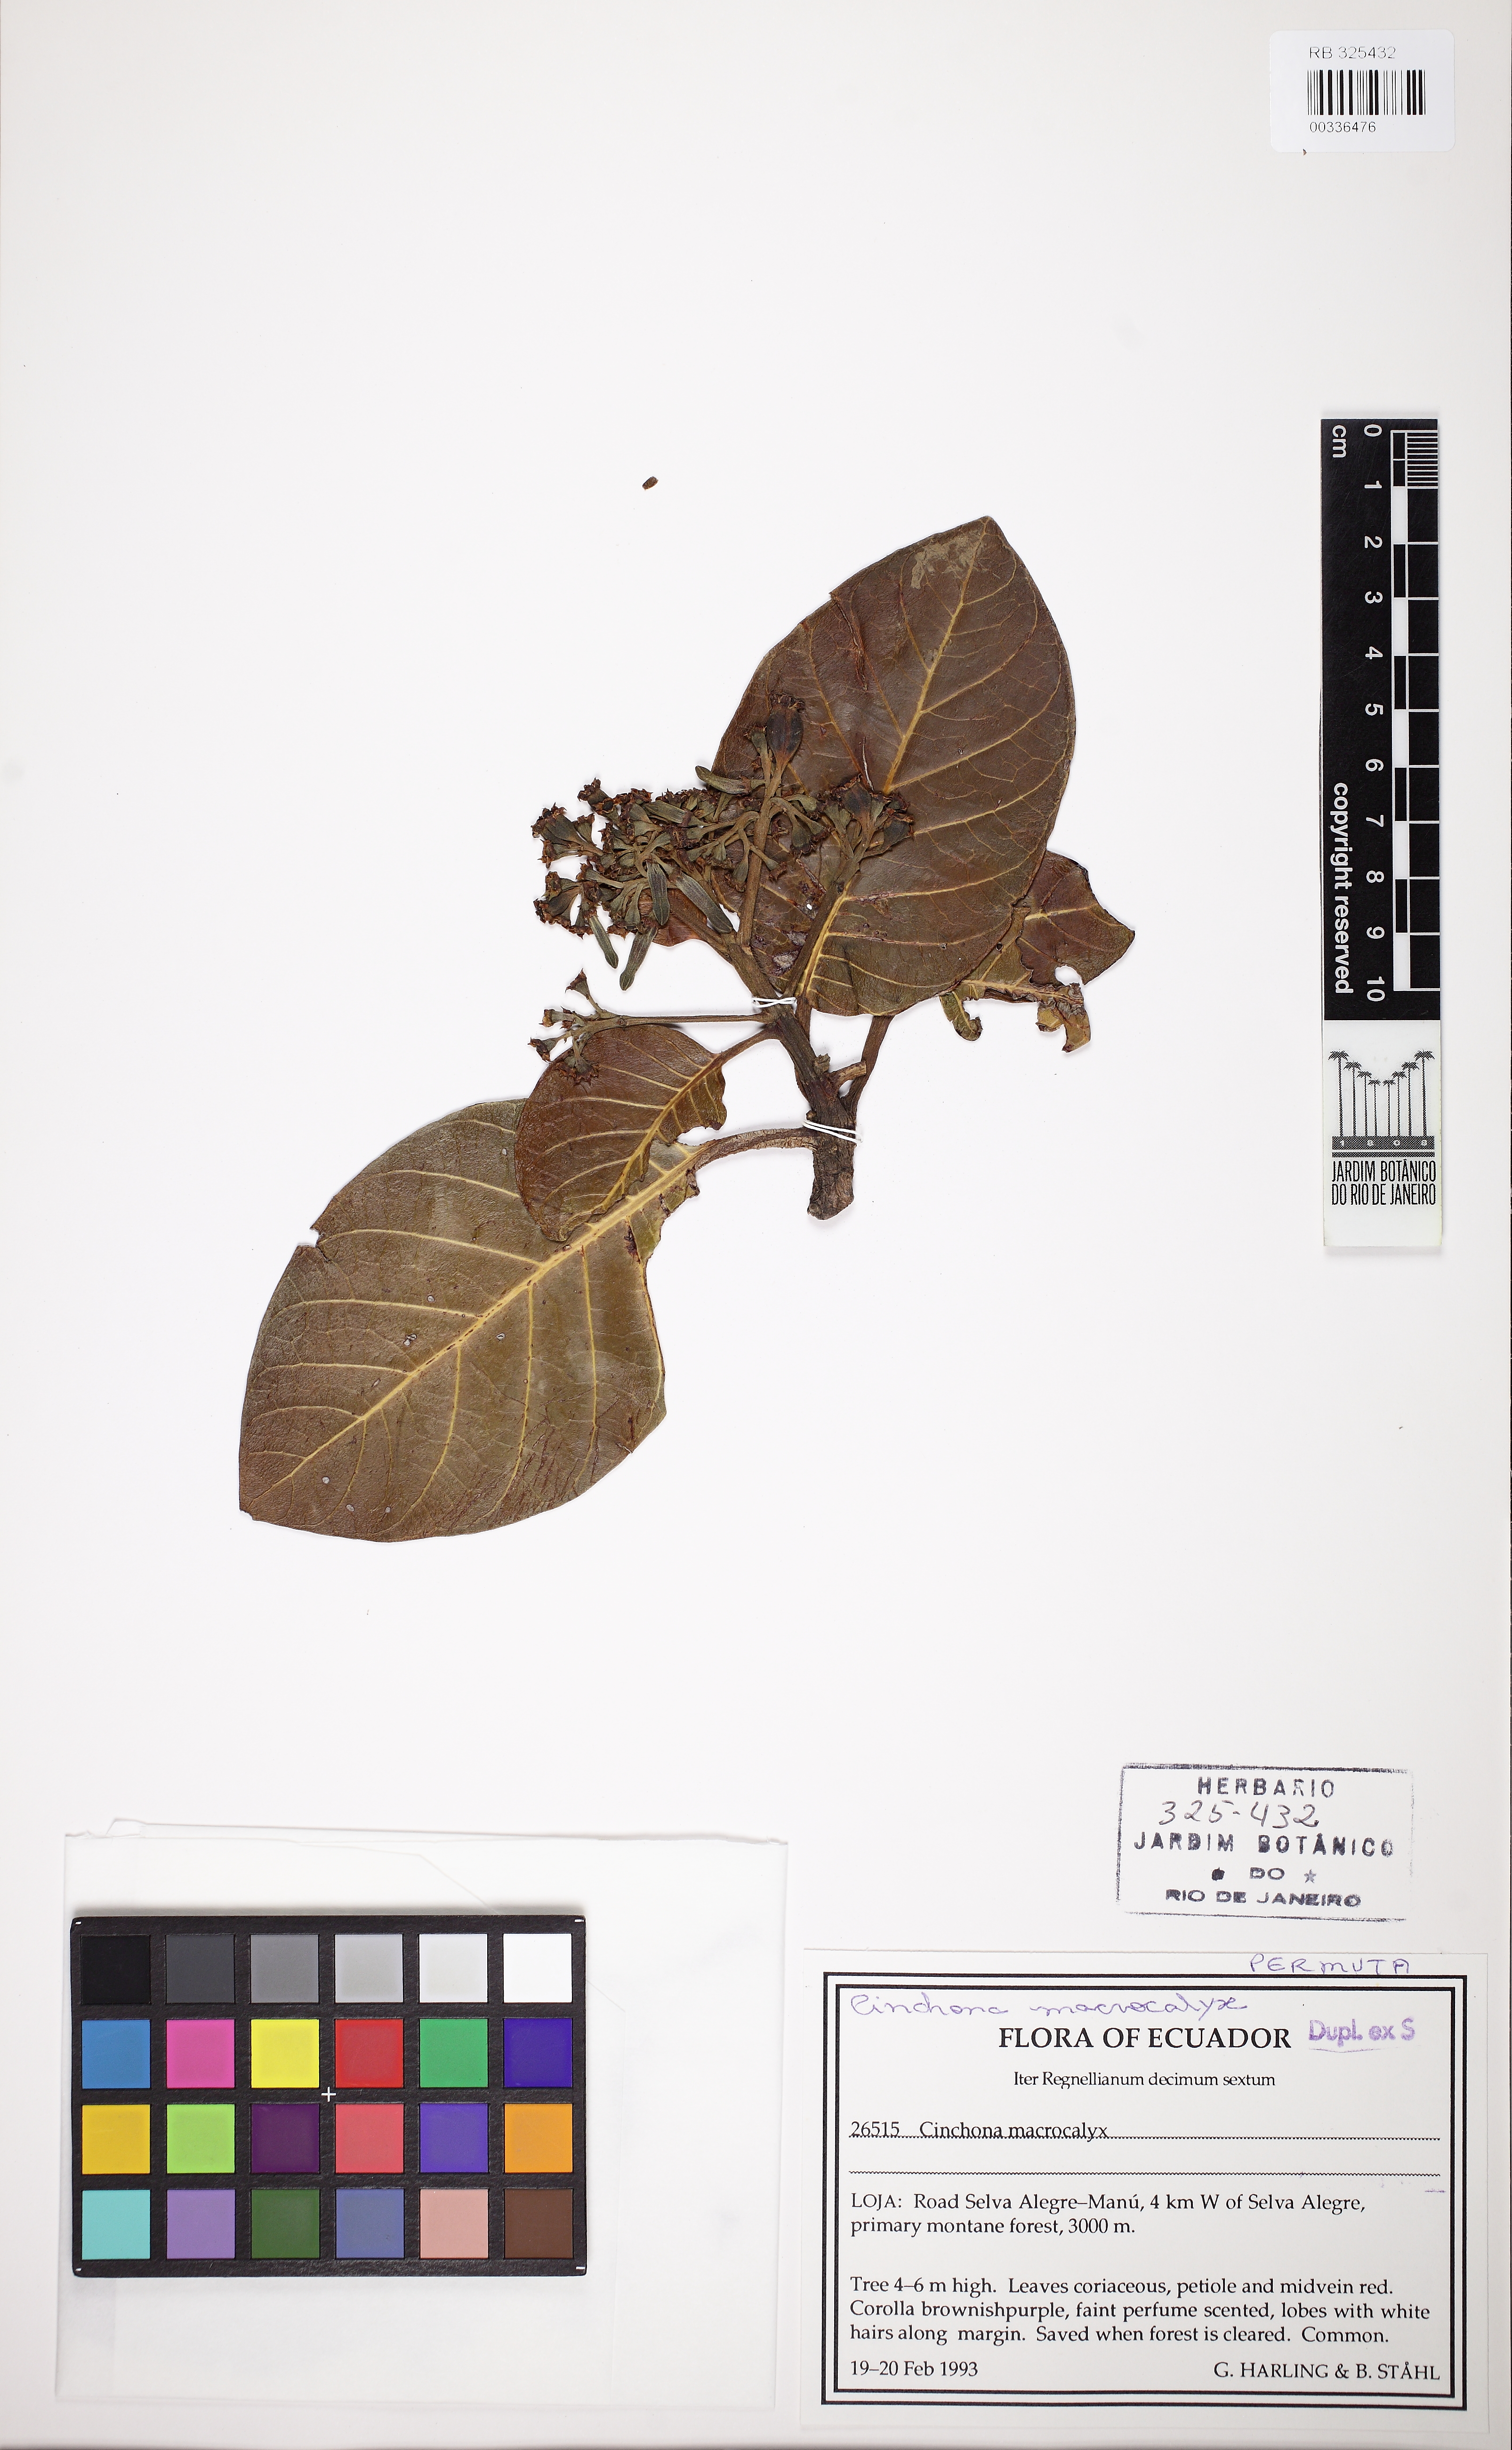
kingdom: Plantae
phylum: Tracheophyta
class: Magnoliopsida
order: Gentianales
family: Rubiaceae
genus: Cinchona
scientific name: Cinchona macrocalyx
